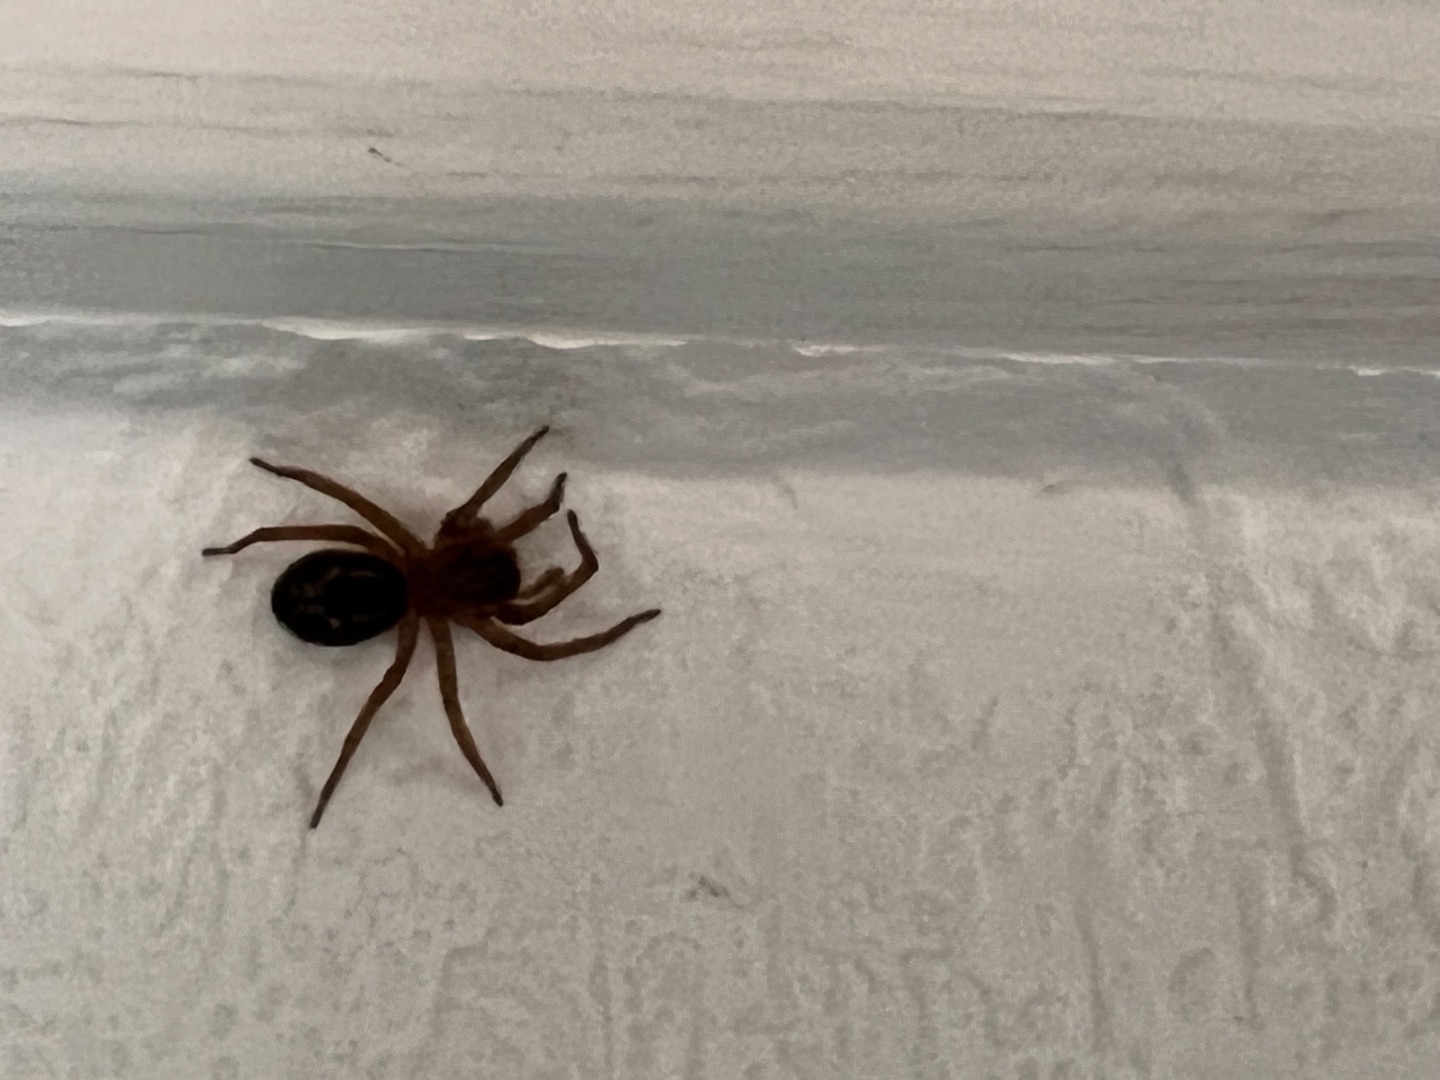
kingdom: Animalia
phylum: Arthropoda
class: Arachnida
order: Araneae
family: Amaurobiidae
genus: Amaurobius
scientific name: Amaurobius
